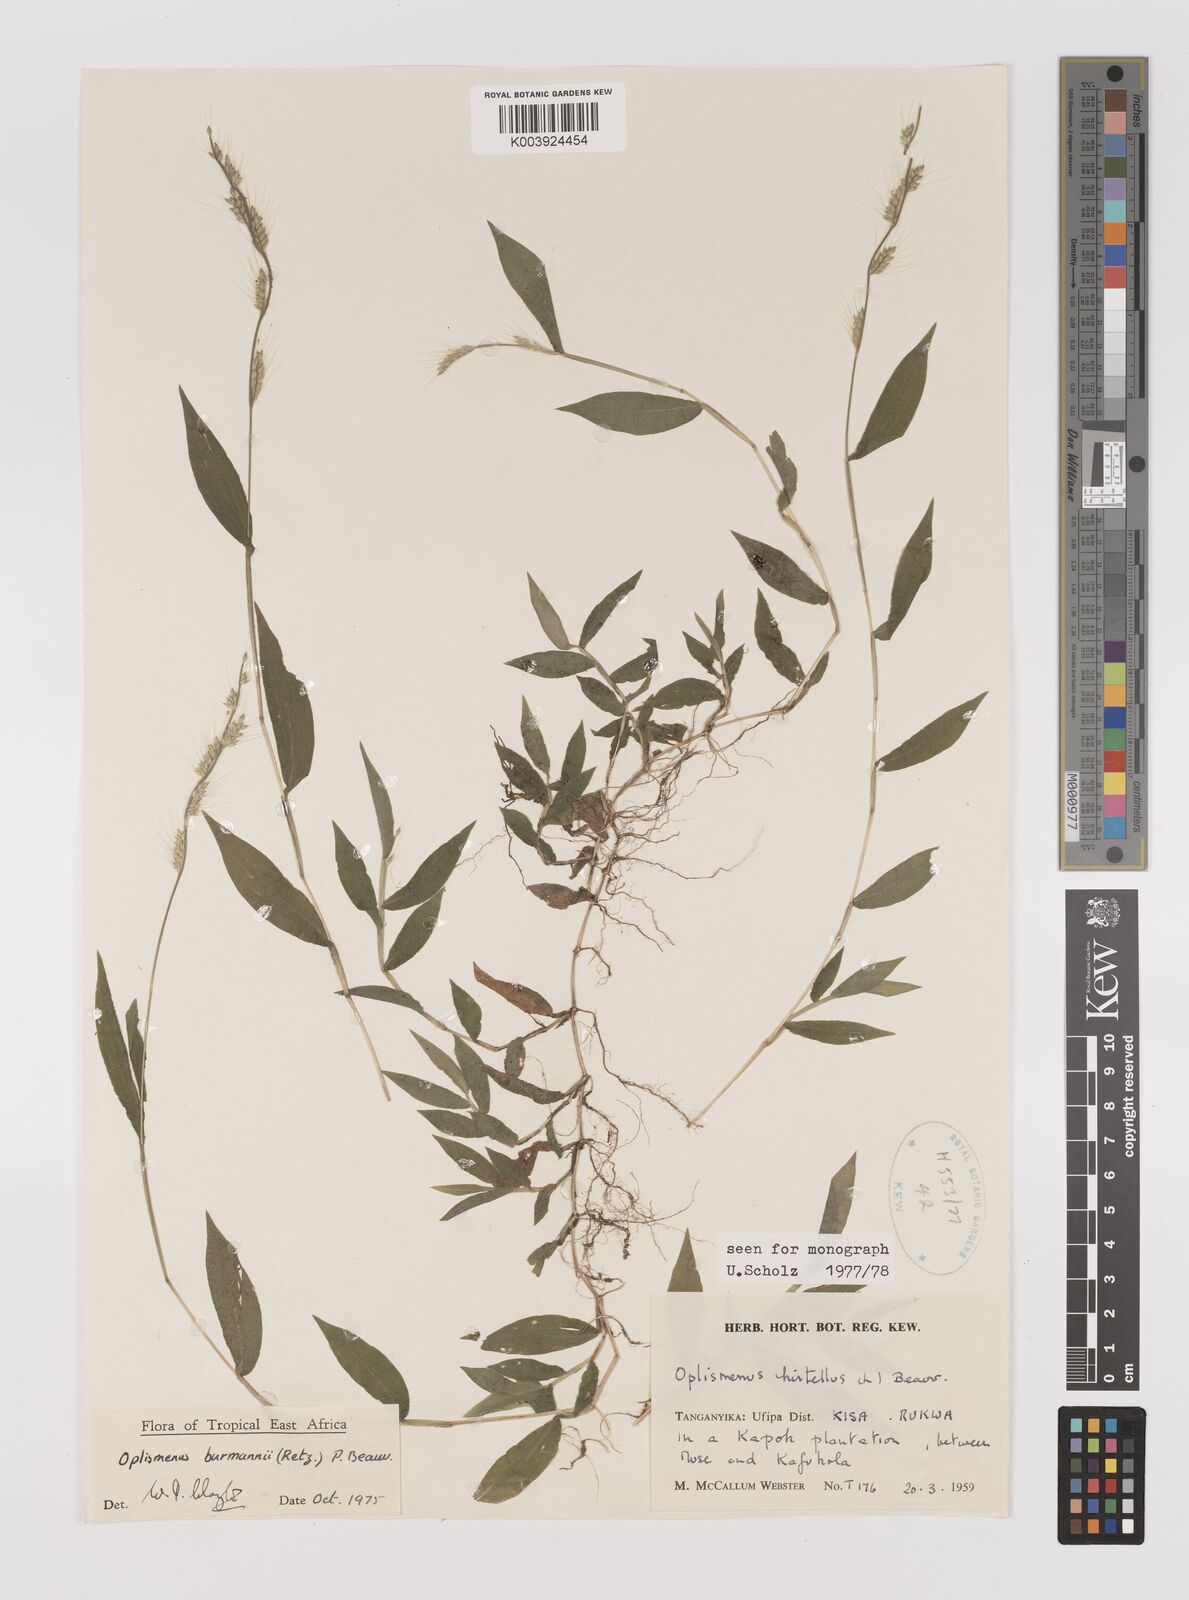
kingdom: Plantae
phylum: Tracheophyta
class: Liliopsida
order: Poales
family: Poaceae
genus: Oplismenus
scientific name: Oplismenus burmanni
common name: Burmann's basketgrass
